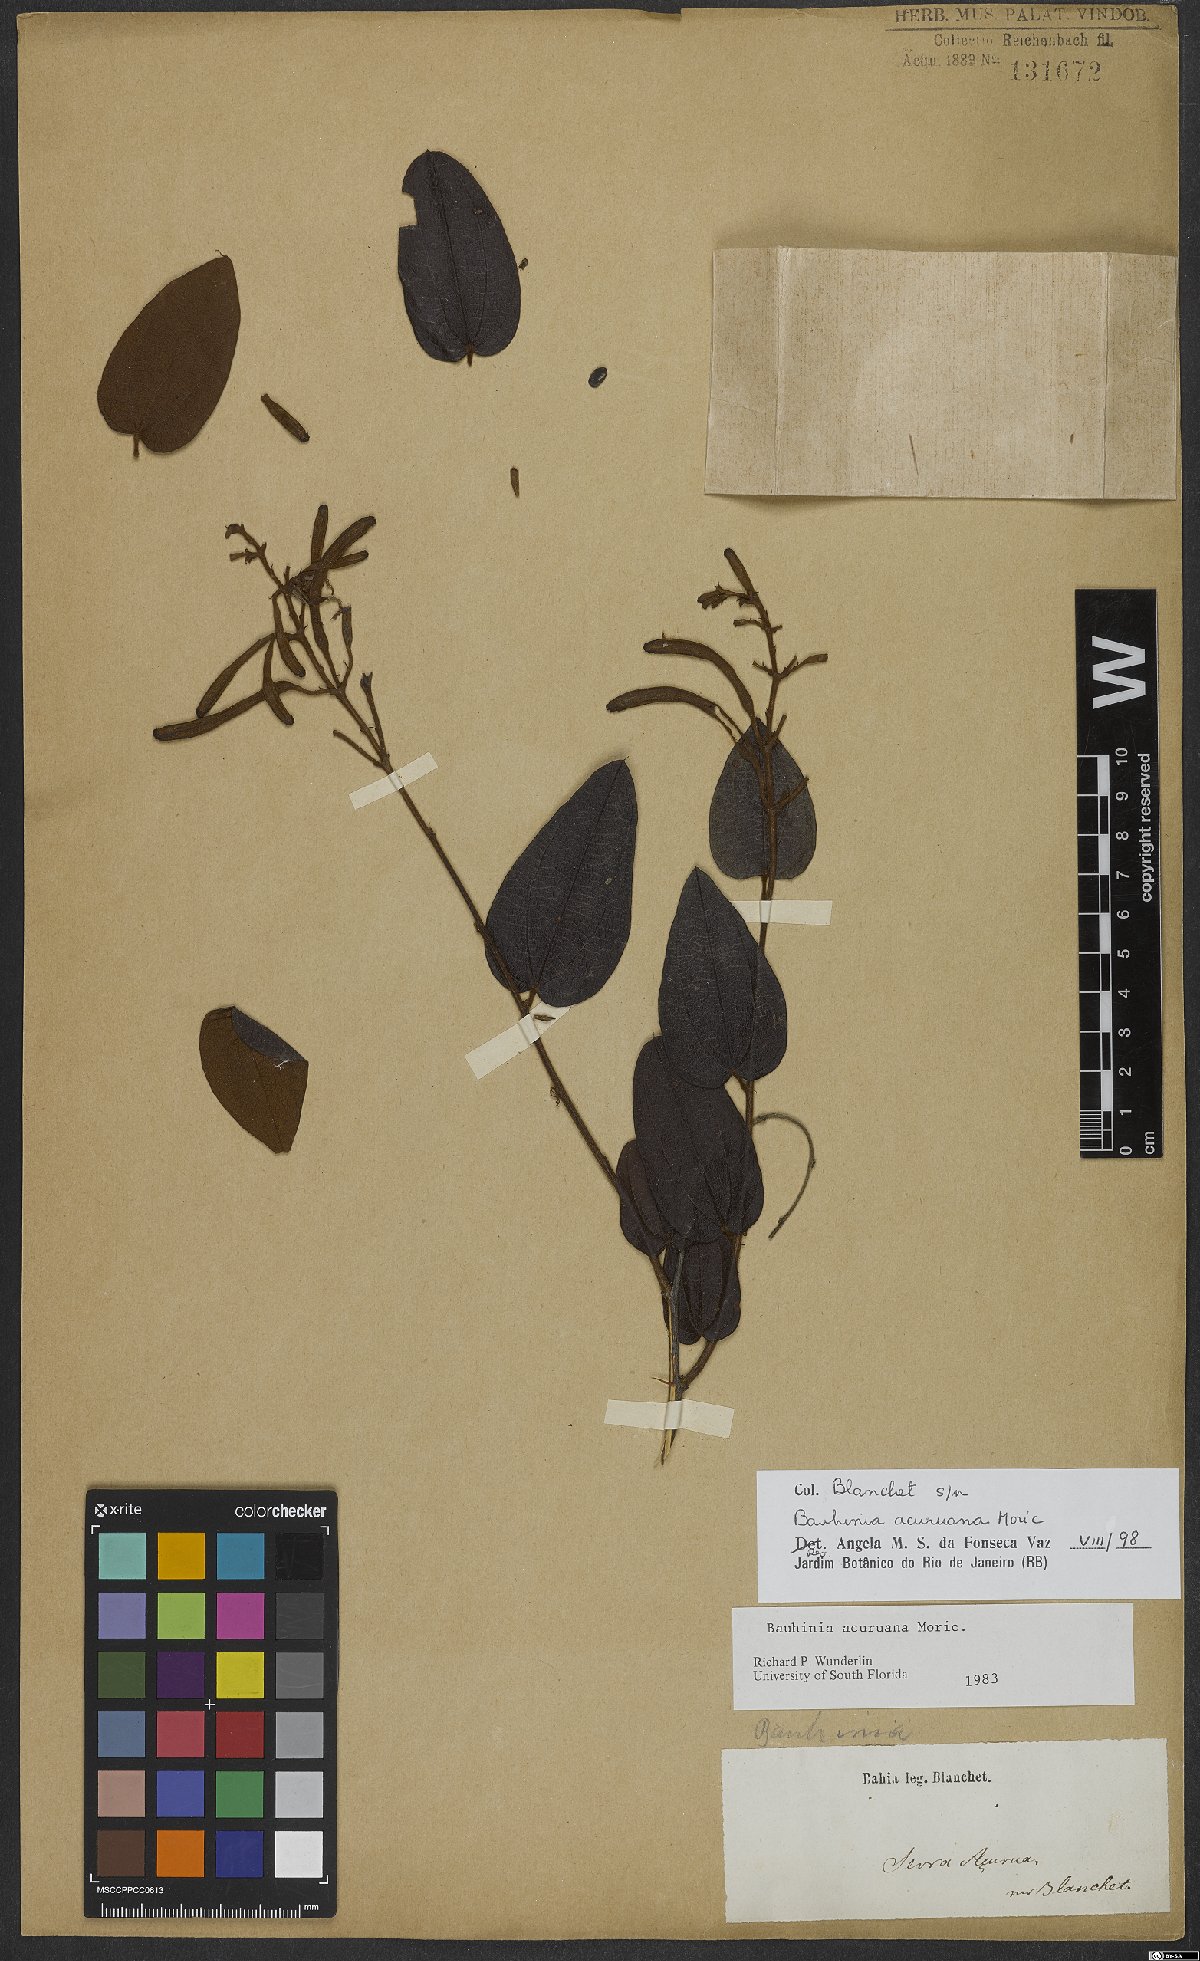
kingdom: Plantae
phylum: Tracheophyta
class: Magnoliopsida
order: Fabales
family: Fabaceae
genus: Bauhinia
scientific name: Bauhinia acuruana
